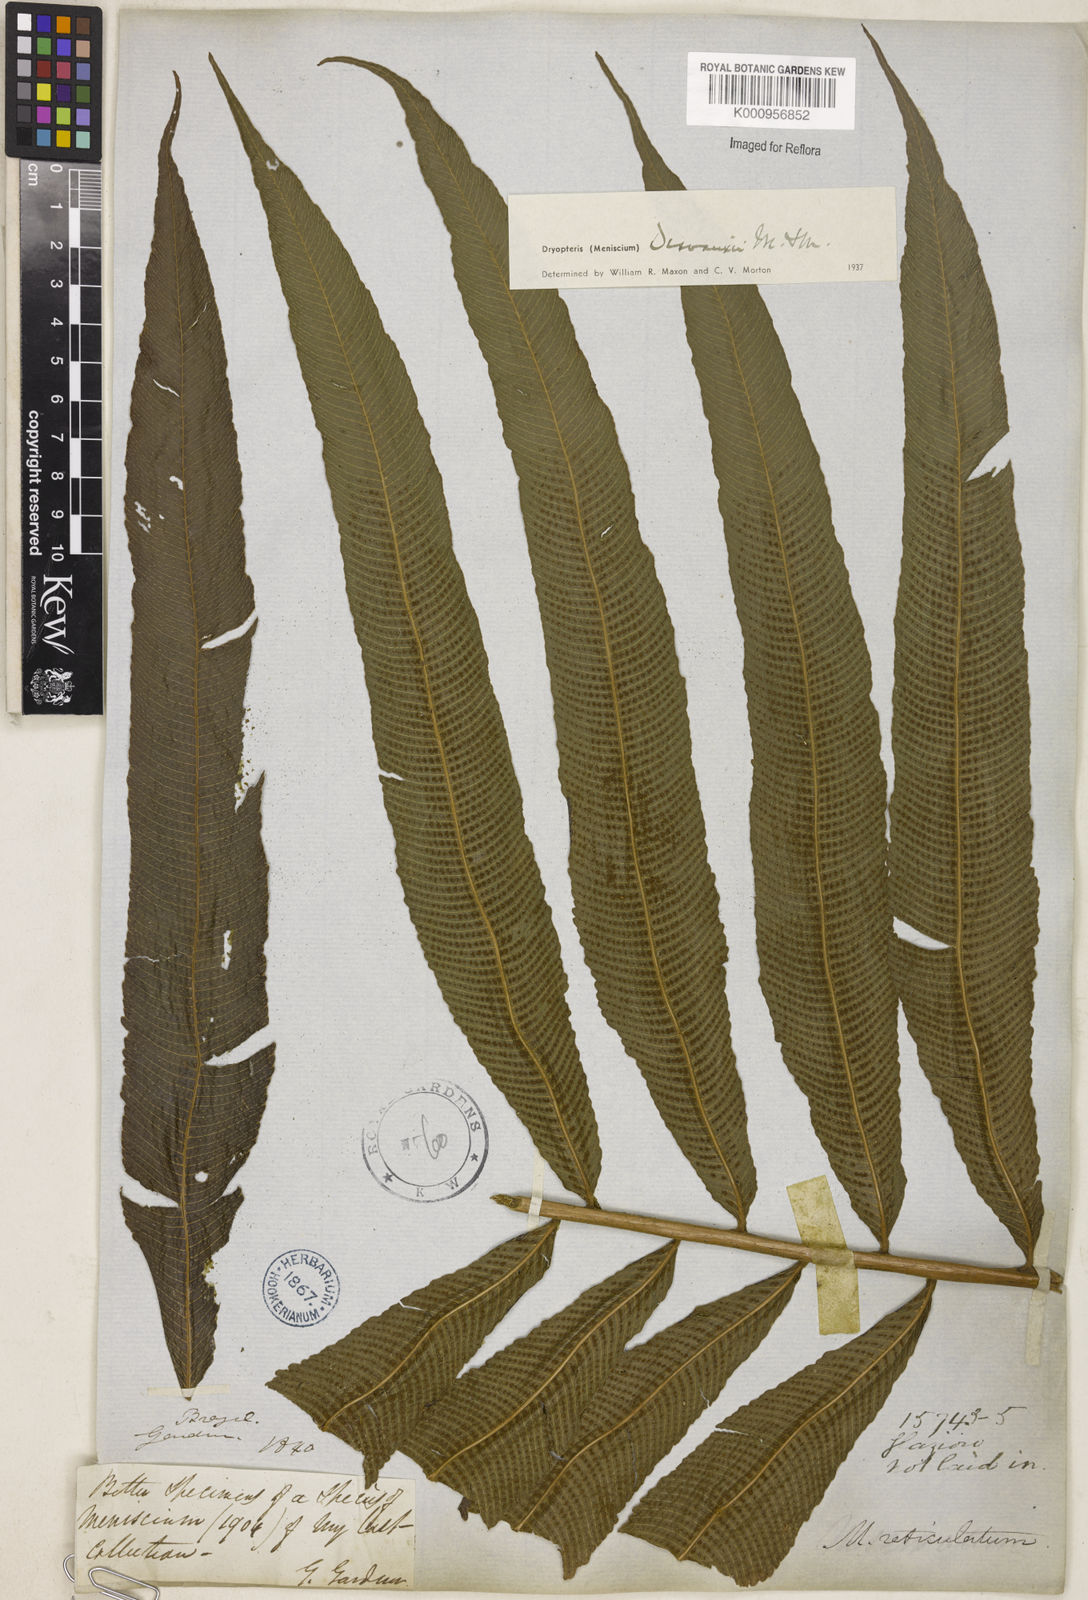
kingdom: Plantae
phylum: Tracheophyta
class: Polypodiopsida
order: Polypodiales
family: Thelypteridaceae
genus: Meniscium
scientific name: Meniscium arborescens
